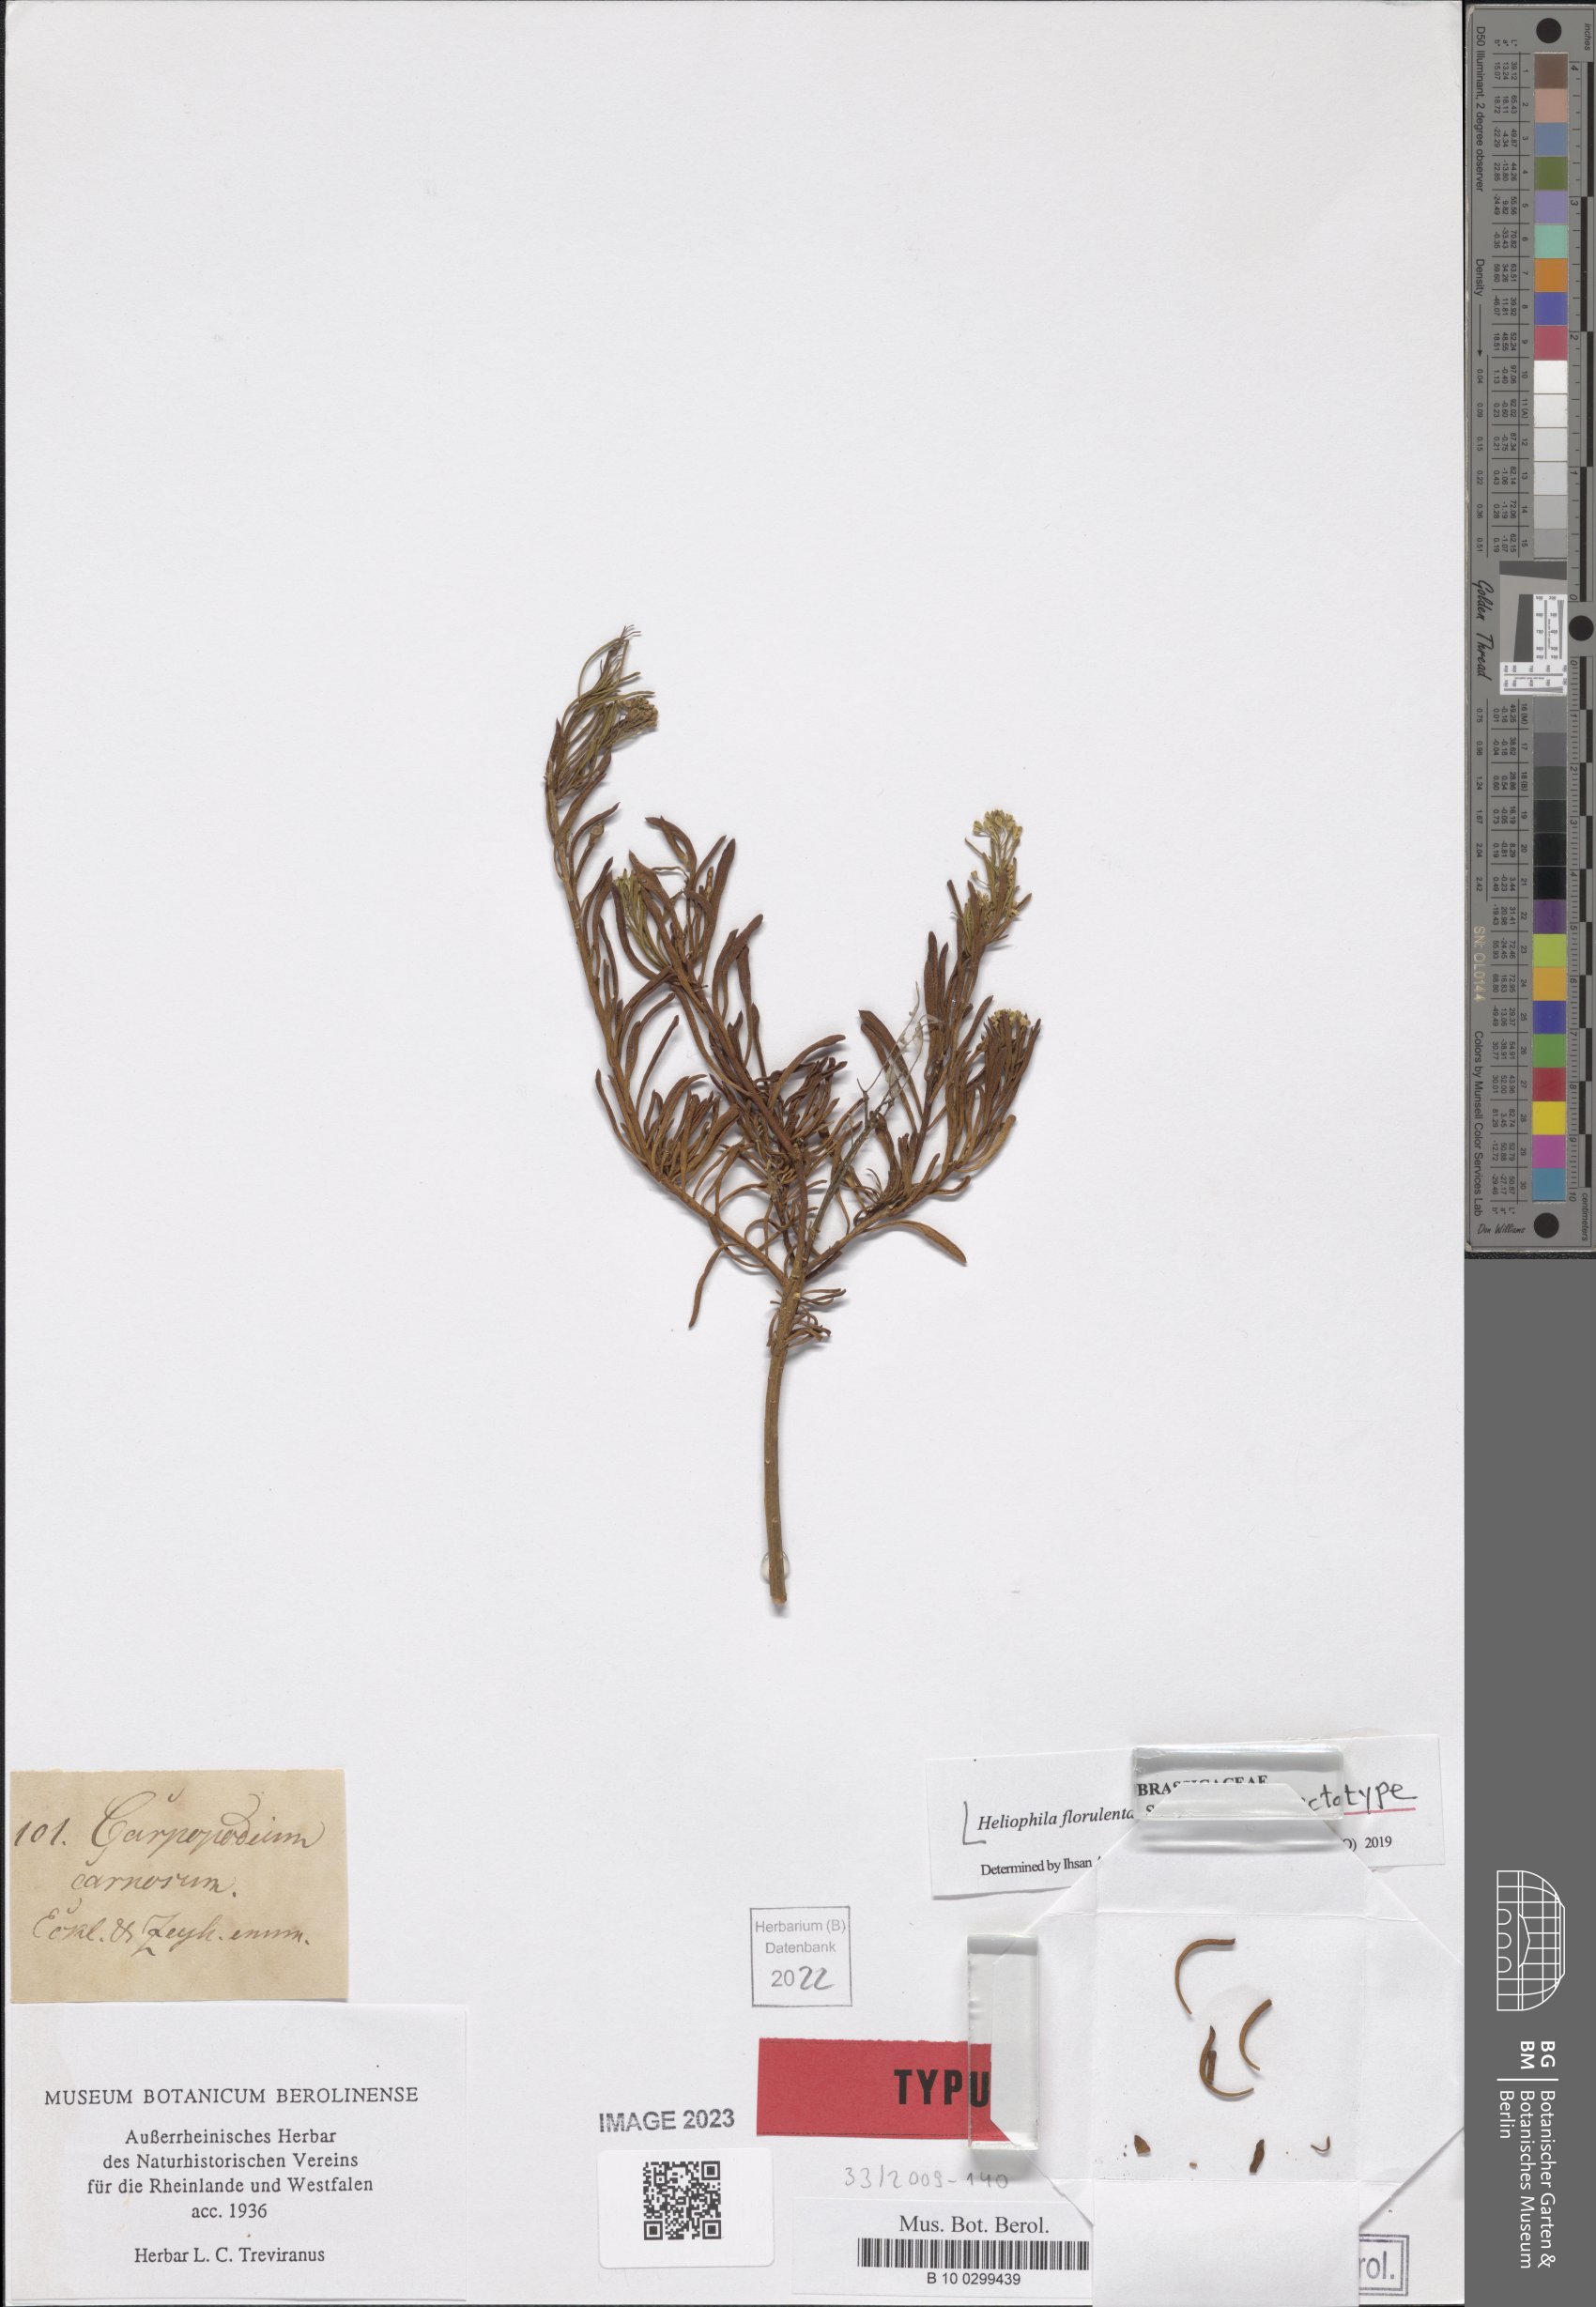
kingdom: Plantae
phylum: Tracheophyta
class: Magnoliopsida
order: Brassicales
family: Brassicaceae
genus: Heliophila
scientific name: Heliophila brachycarpa
